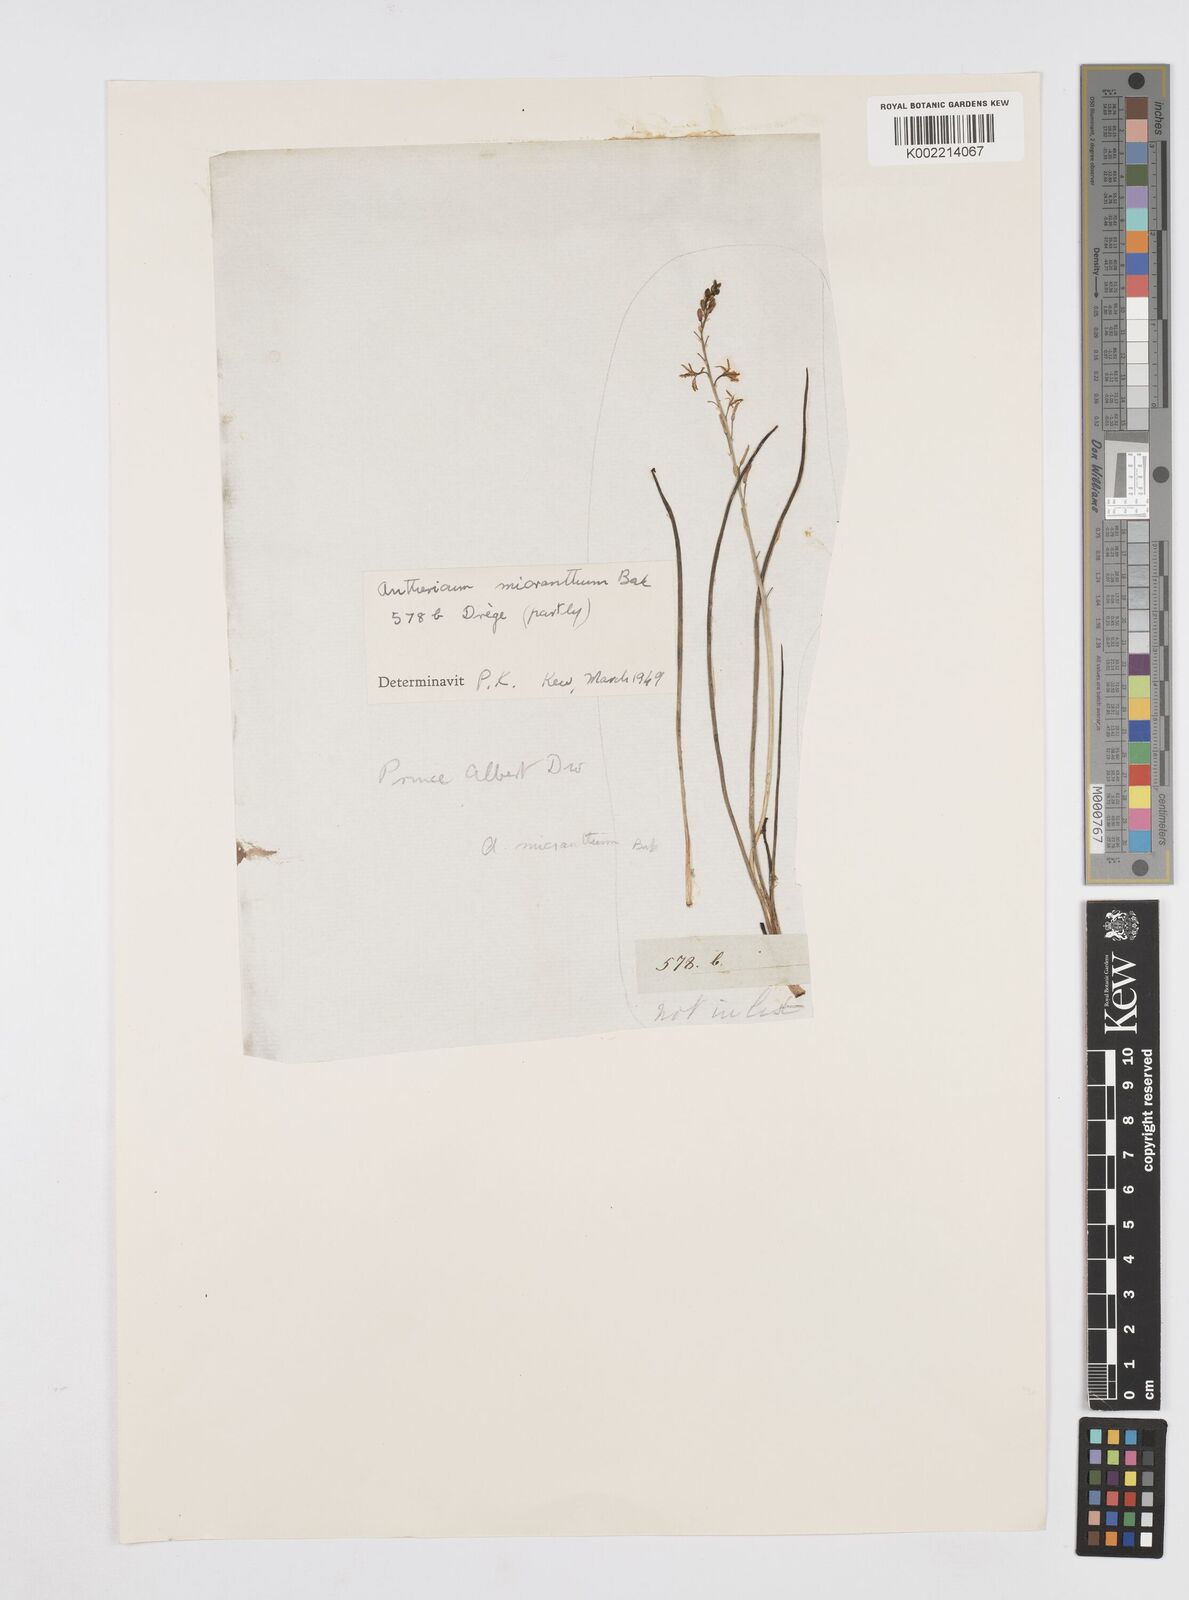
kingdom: Plantae
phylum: Tracheophyta
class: Liliopsida
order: Asparagales
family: Asphodelaceae
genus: Trachyandra
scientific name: Trachyandra
